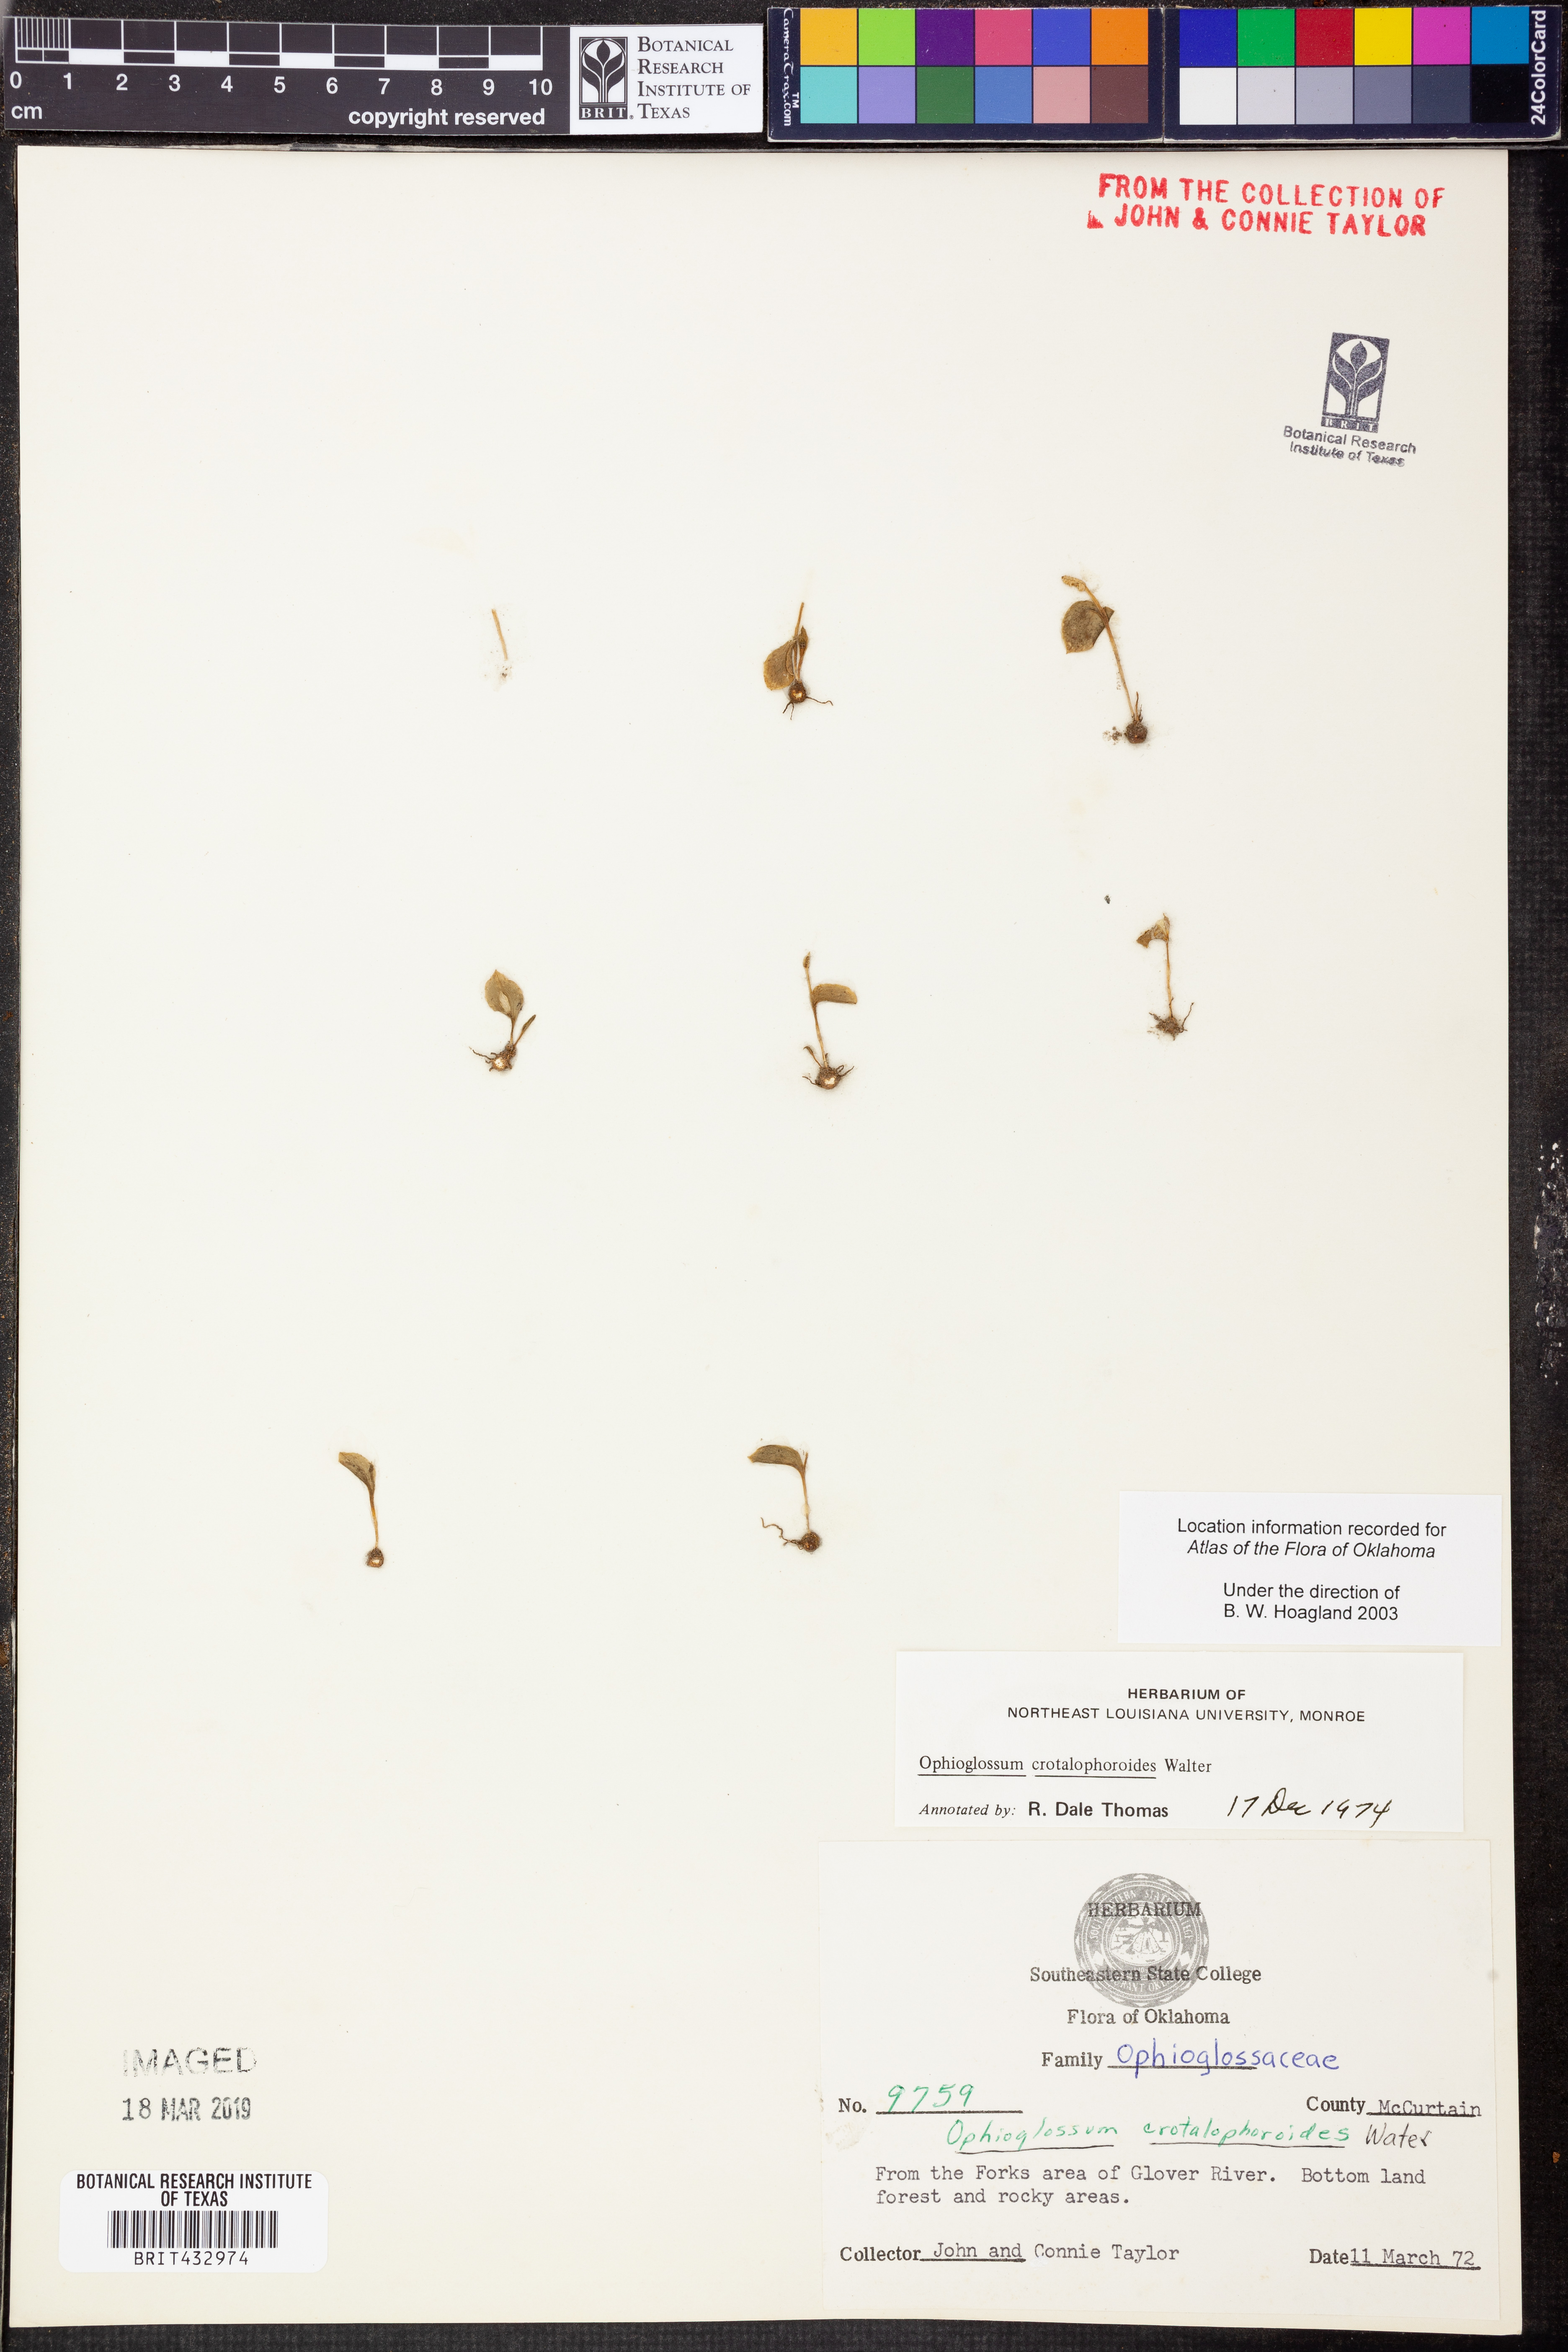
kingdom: Plantae
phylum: Tracheophyta
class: Polypodiopsida
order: Ophioglossales
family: Ophioglossaceae
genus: Ophioglossum
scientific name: Ophioglossum crotalophoroides
